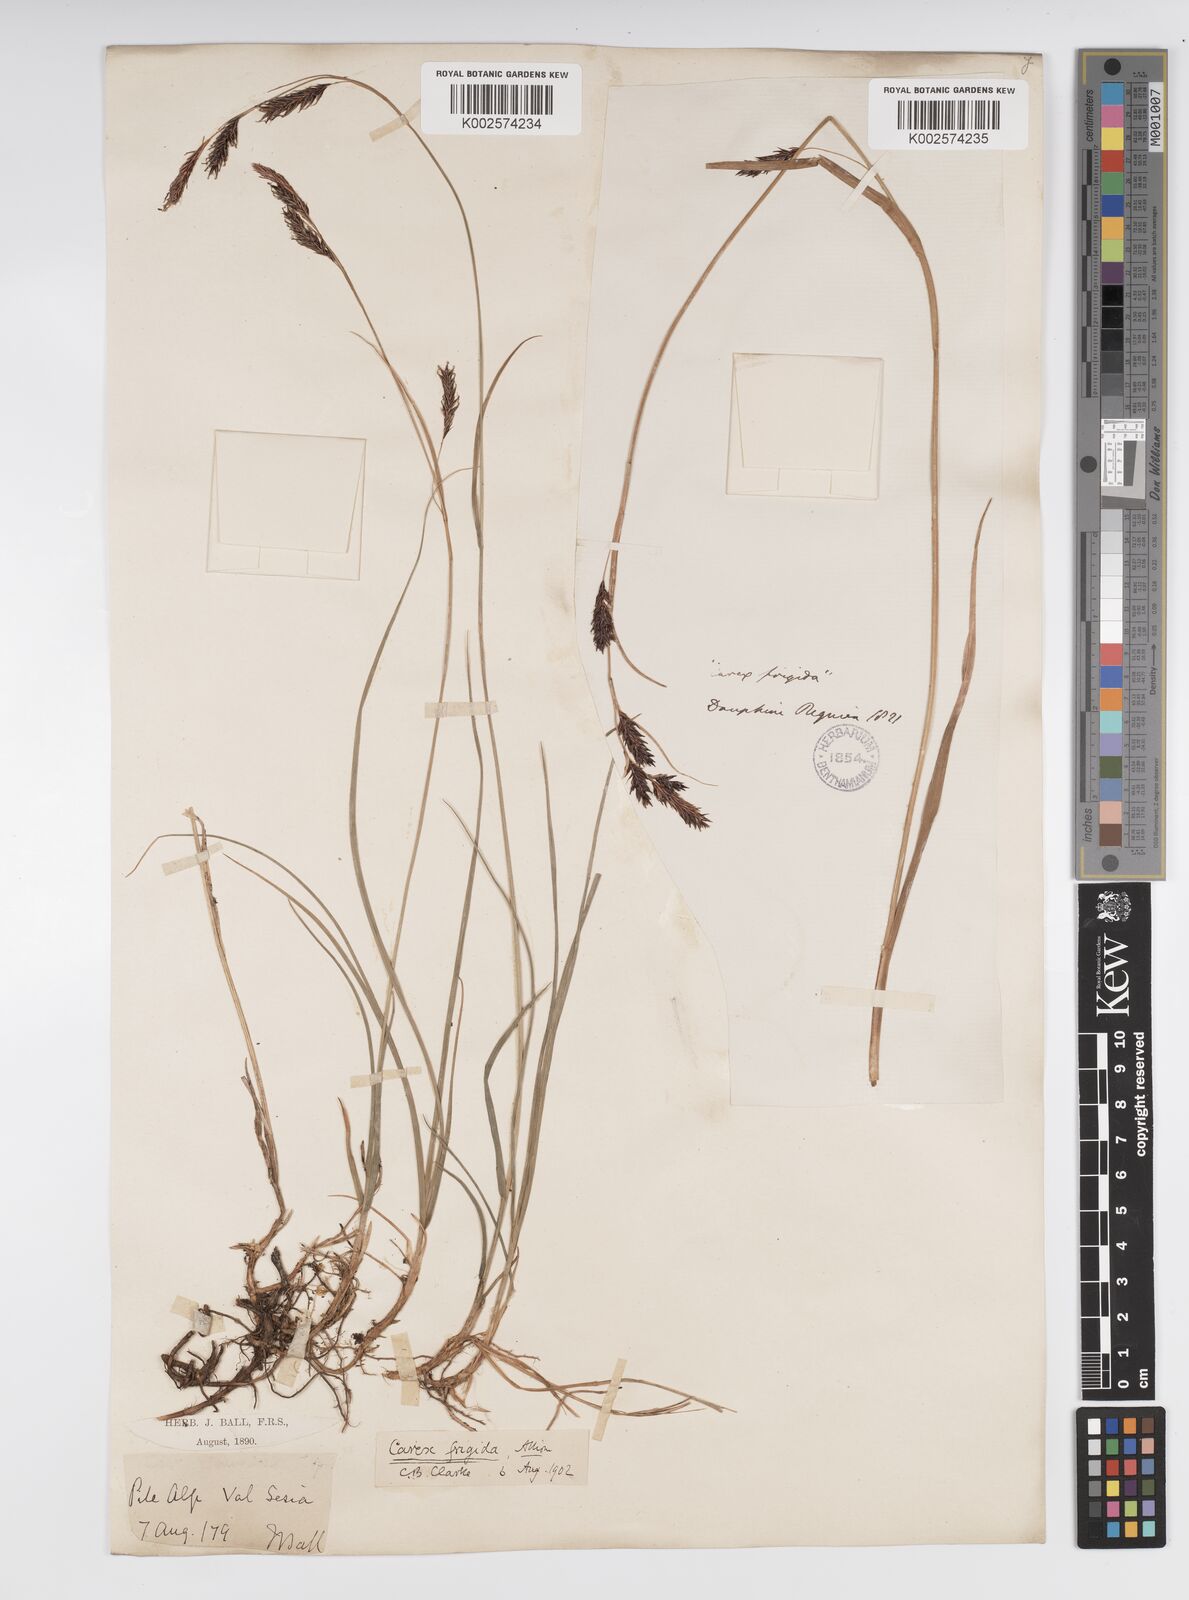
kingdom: Plantae
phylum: Tracheophyta
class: Liliopsida
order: Poales
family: Cyperaceae
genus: Carex
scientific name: Carex frigida
